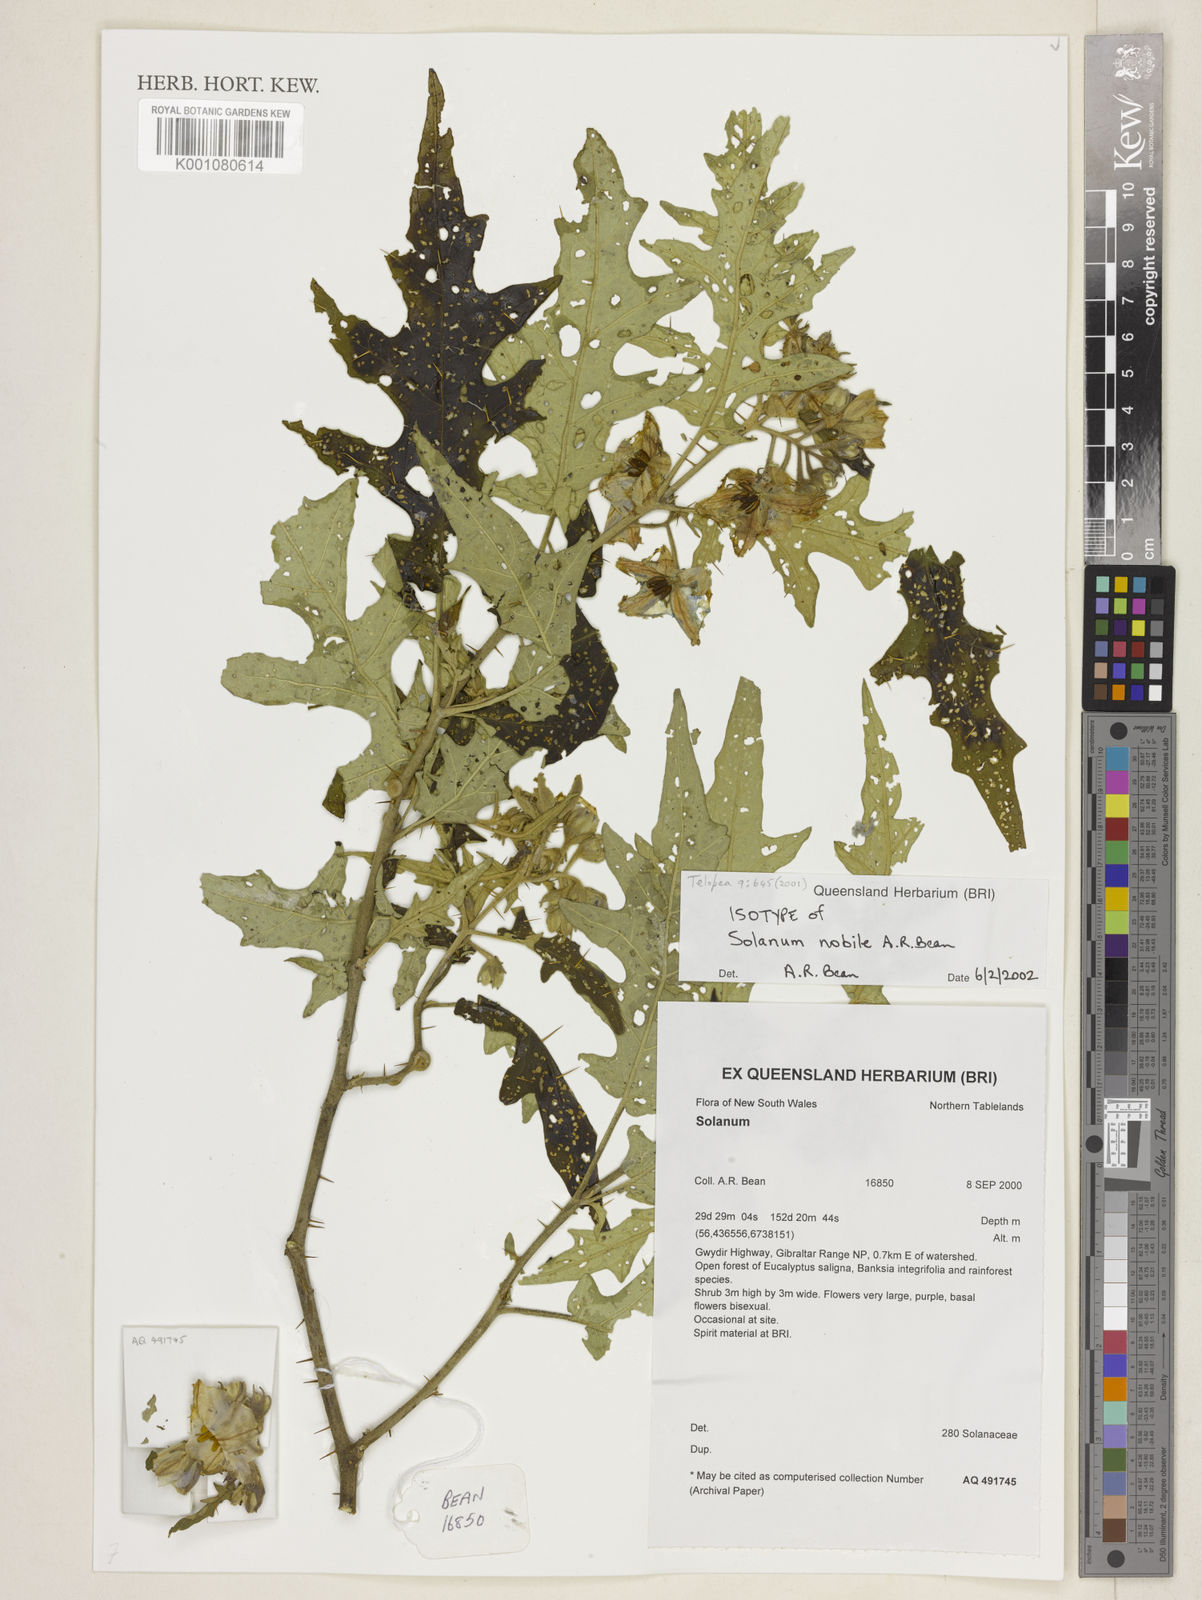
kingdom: Plantae
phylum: Tracheophyta
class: Magnoliopsida
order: Solanales
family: Solanaceae
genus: Solanum
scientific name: Solanum nobile
